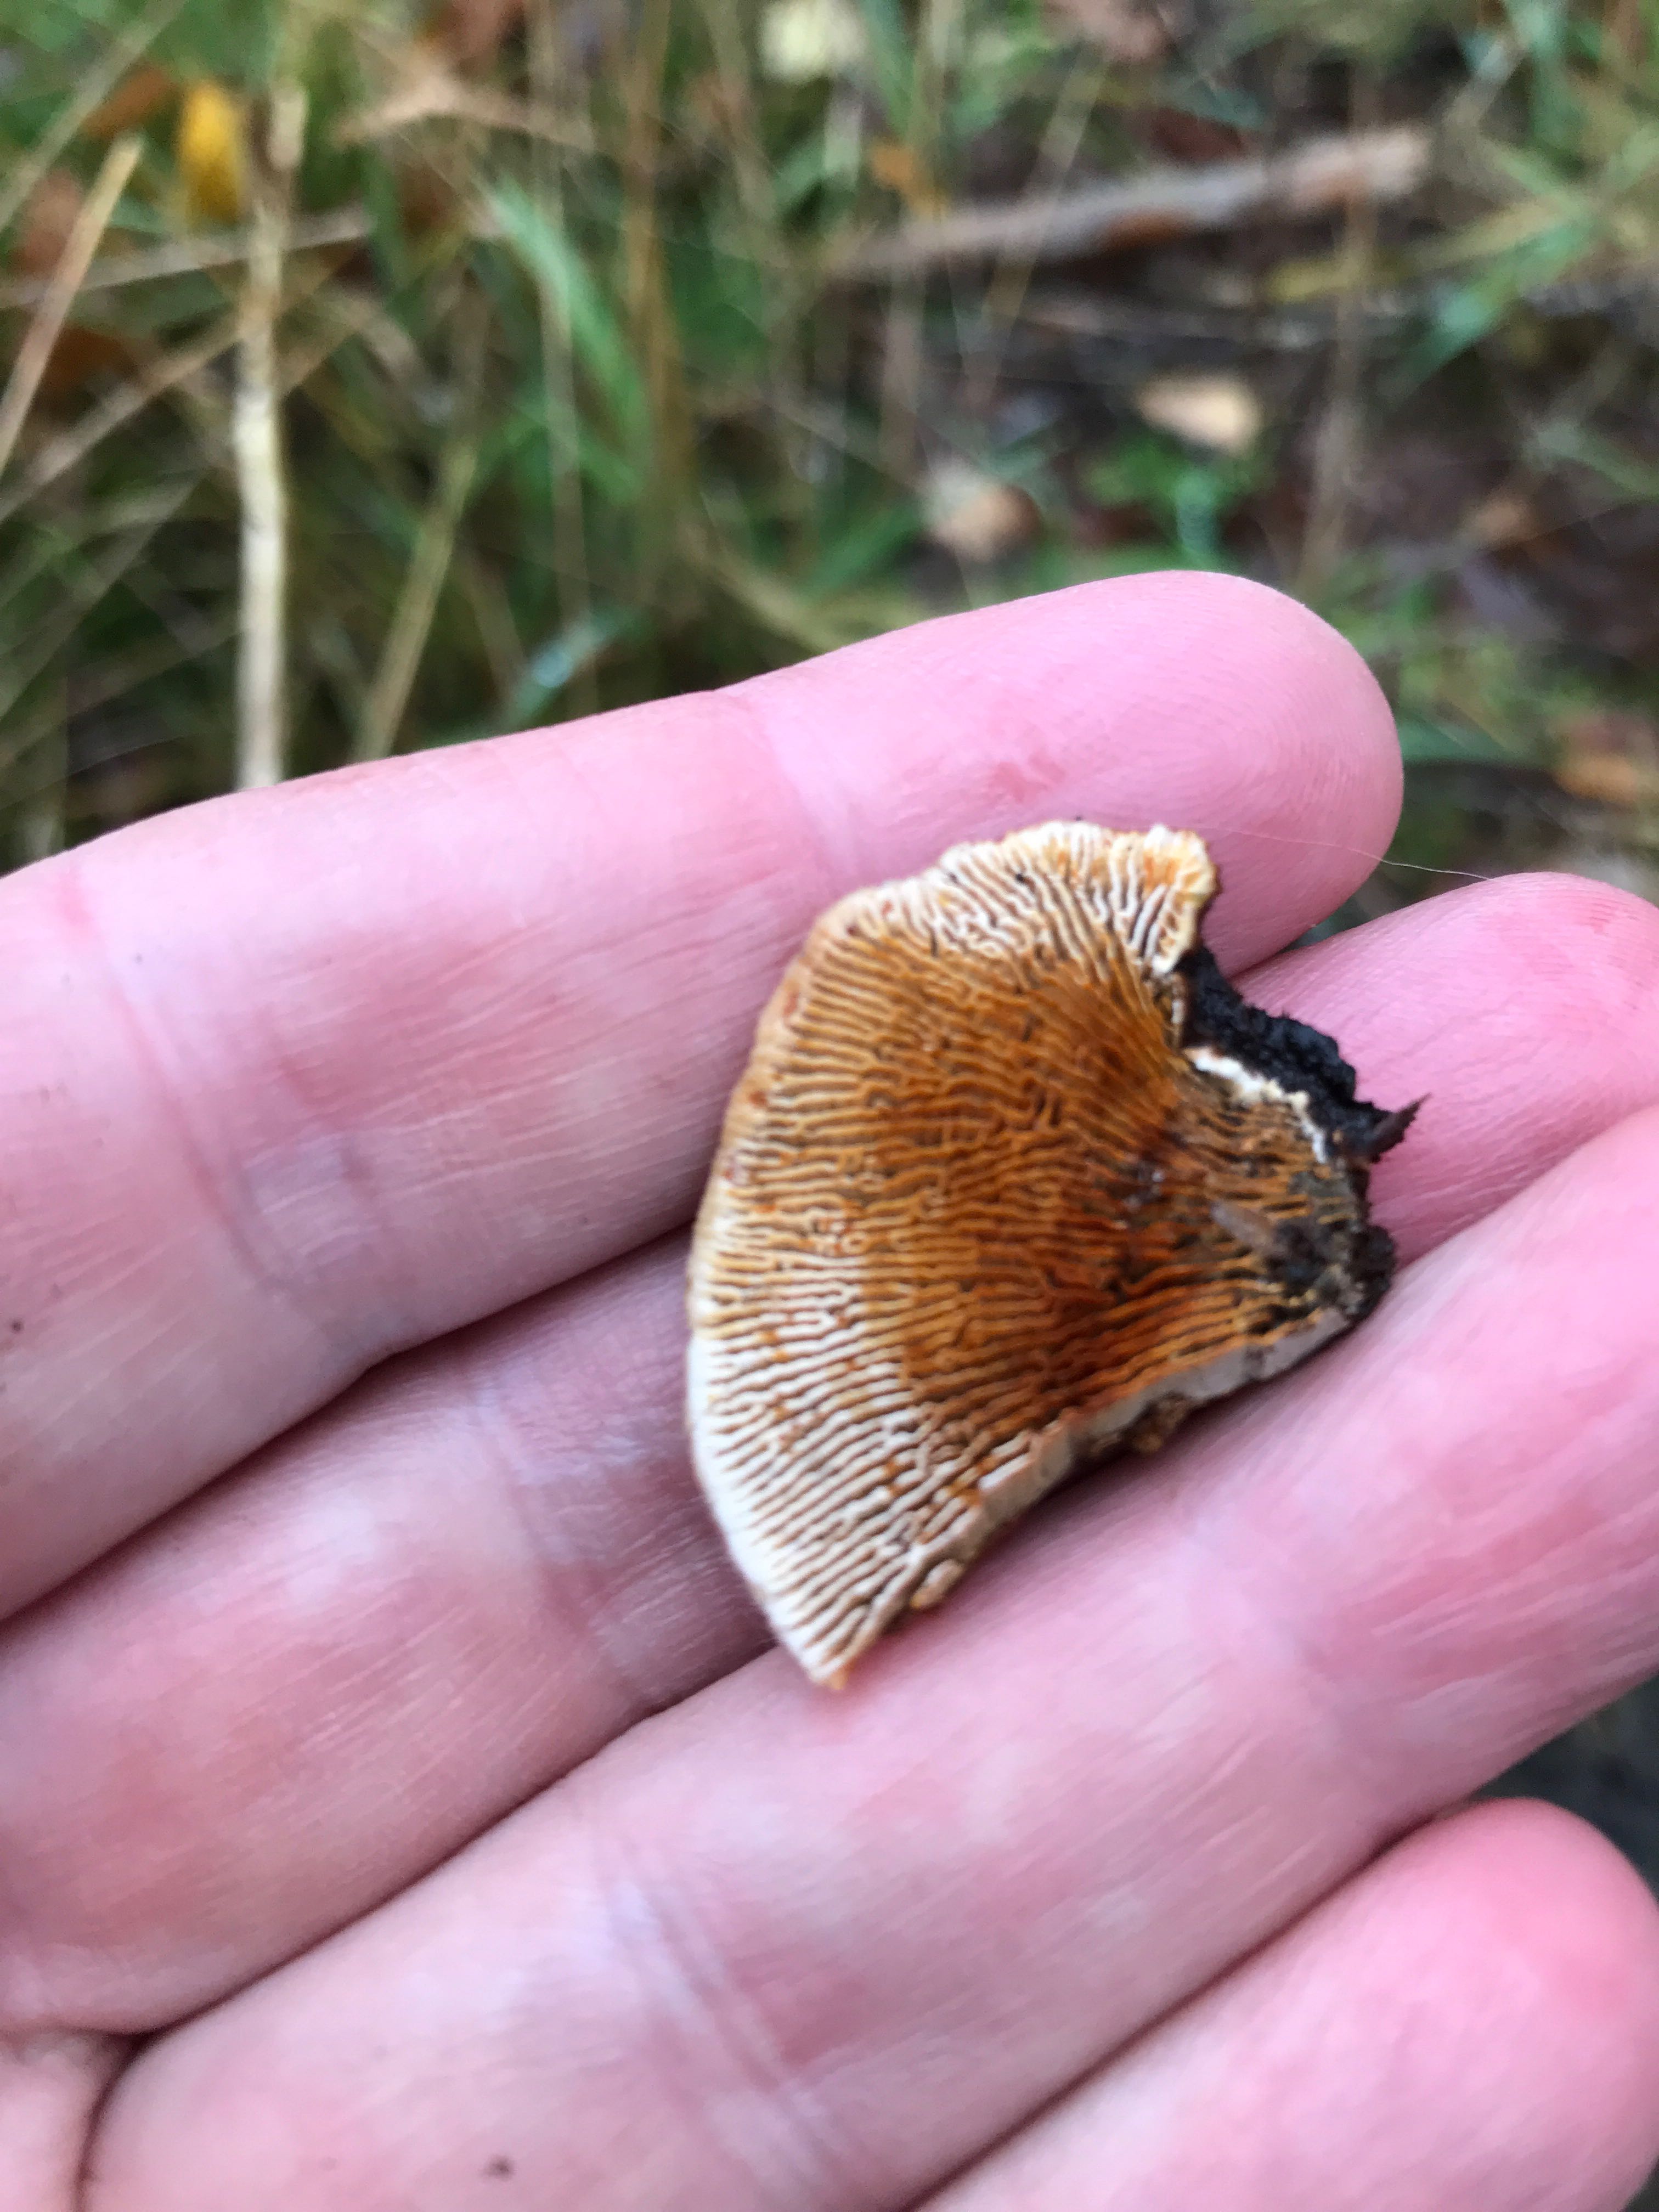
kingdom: Fungi
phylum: Basidiomycota
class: Agaricomycetes
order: Gloeophyllales
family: Gloeophyllaceae
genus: Gloeophyllum
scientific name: Gloeophyllum sepiarium
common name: fyrre-korkhat
